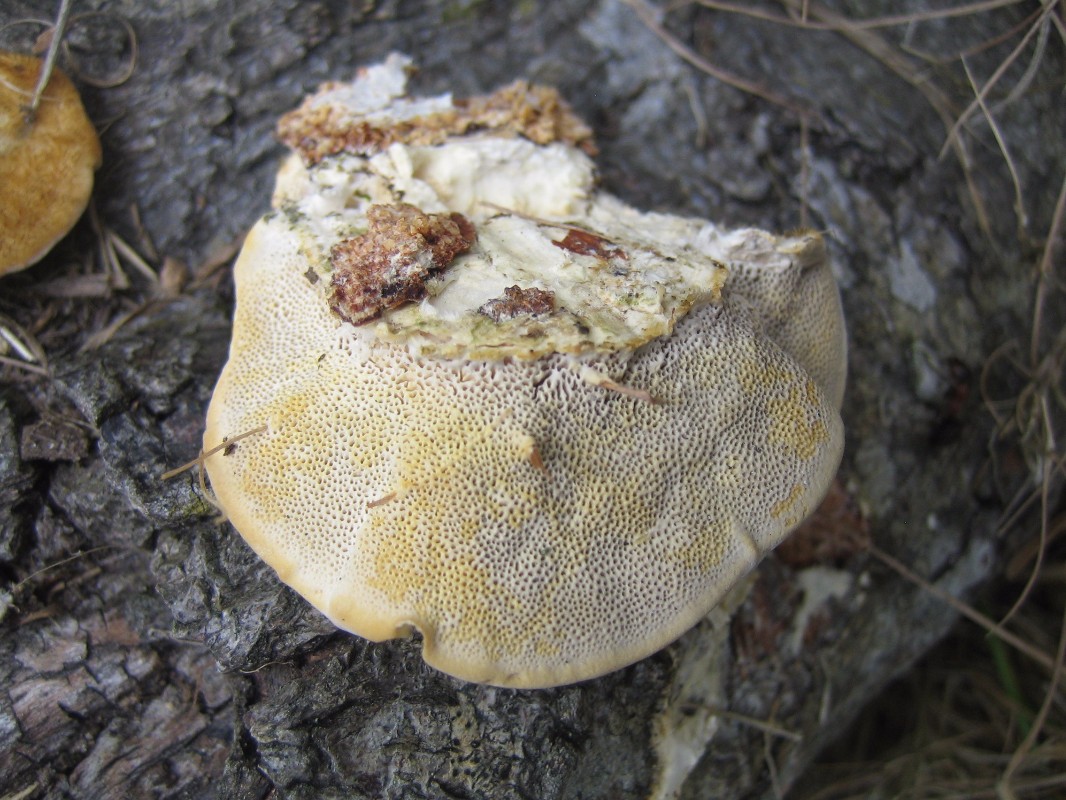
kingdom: Fungi
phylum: Basidiomycota
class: Agaricomycetes
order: Polyporales
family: Polyporaceae
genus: Trametes
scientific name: Trametes hirsuta
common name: håret læderporesvamp
